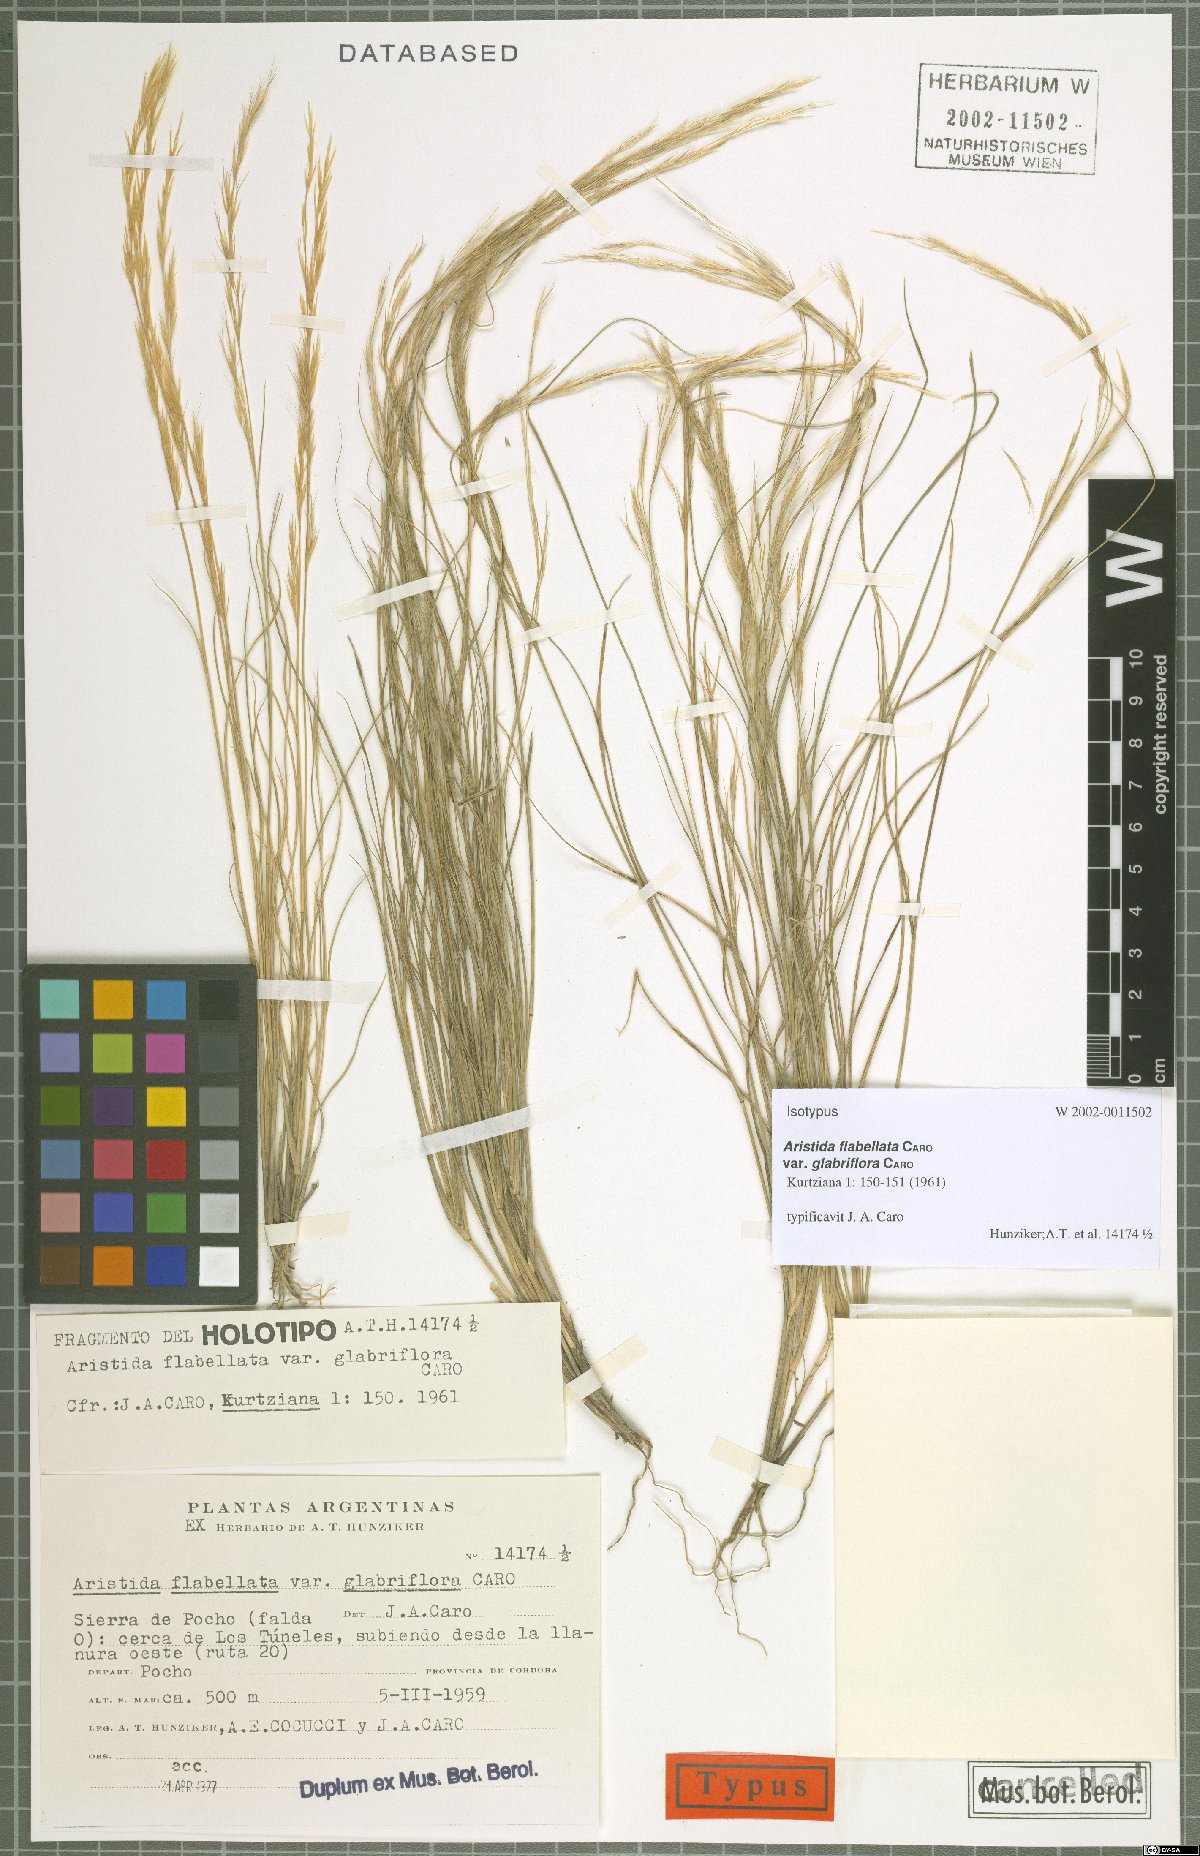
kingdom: Plantae
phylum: Tracheophyta
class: Liliopsida
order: Poales
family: Poaceae
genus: Aristida
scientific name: Aristida flabellata
